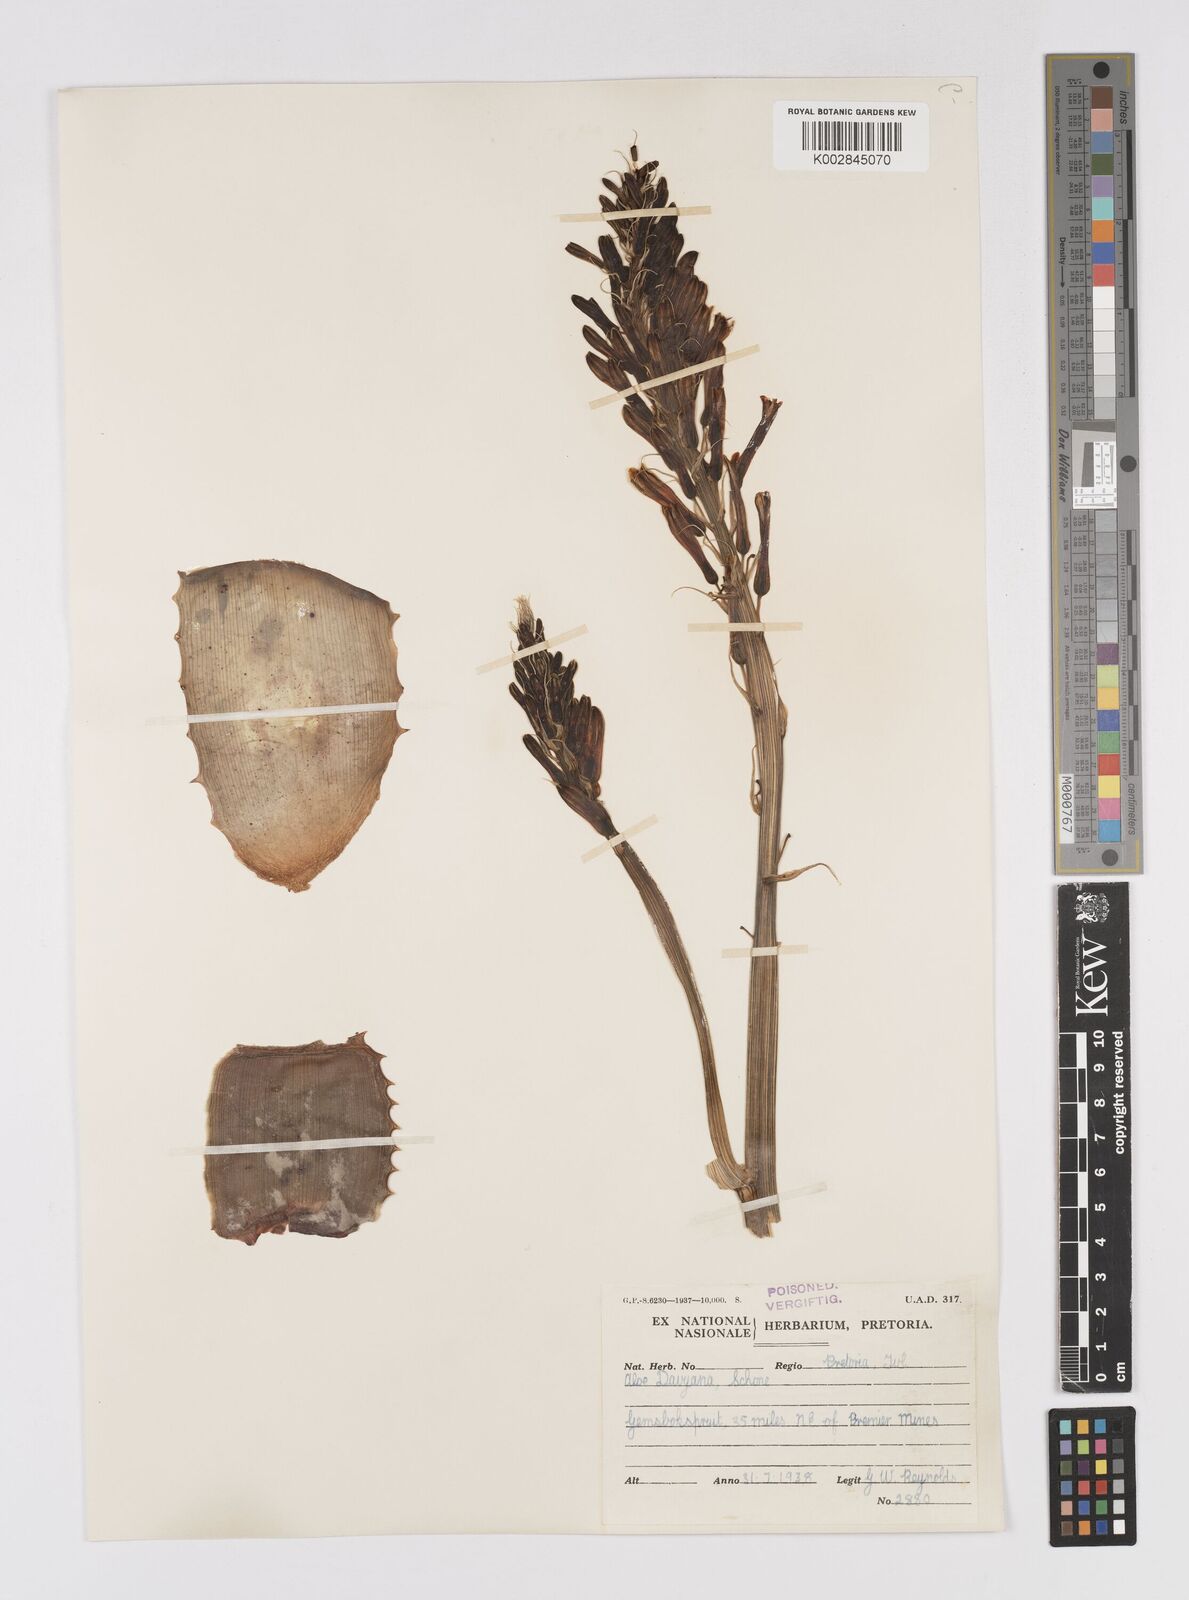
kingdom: Plantae
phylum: Tracheophyta
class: Liliopsida
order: Asparagales
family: Asphodelaceae
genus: Aloe
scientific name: Aloe davyana
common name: Spotted aloe
